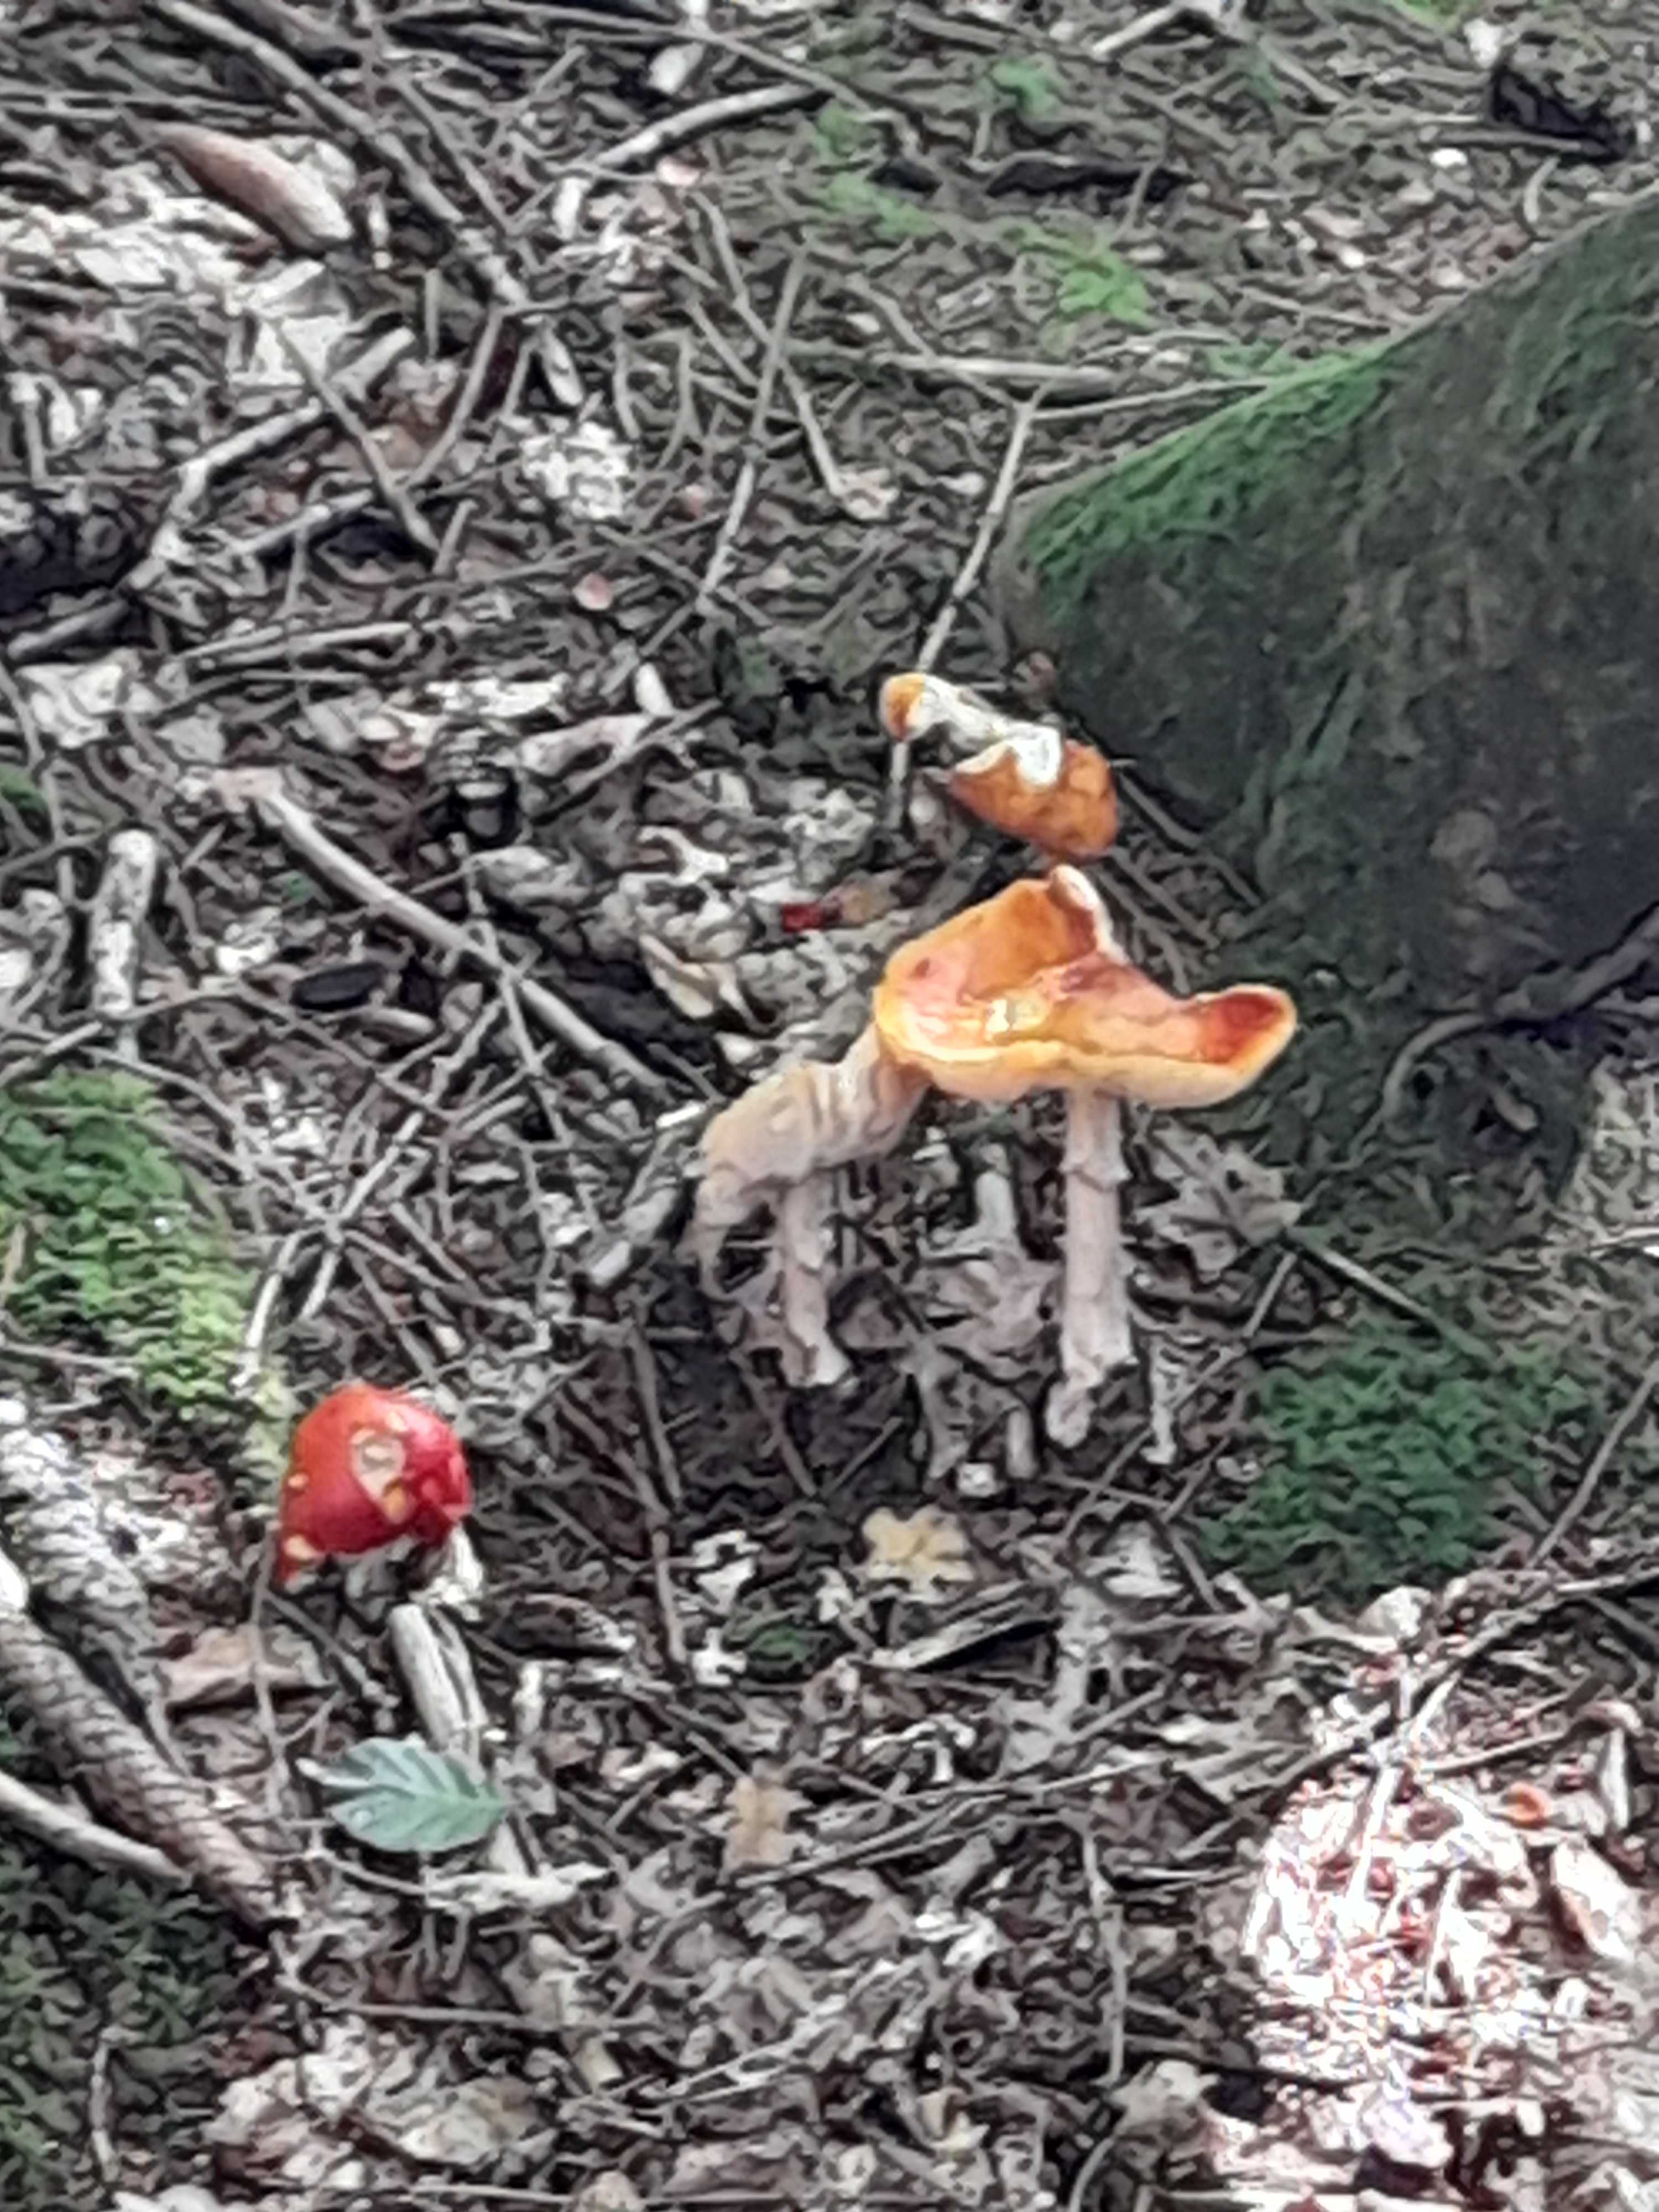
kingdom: Fungi
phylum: Basidiomycota
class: Agaricomycetes
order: Agaricales
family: Amanitaceae
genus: Amanita
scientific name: Amanita muscaria
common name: rød fluesvamp
